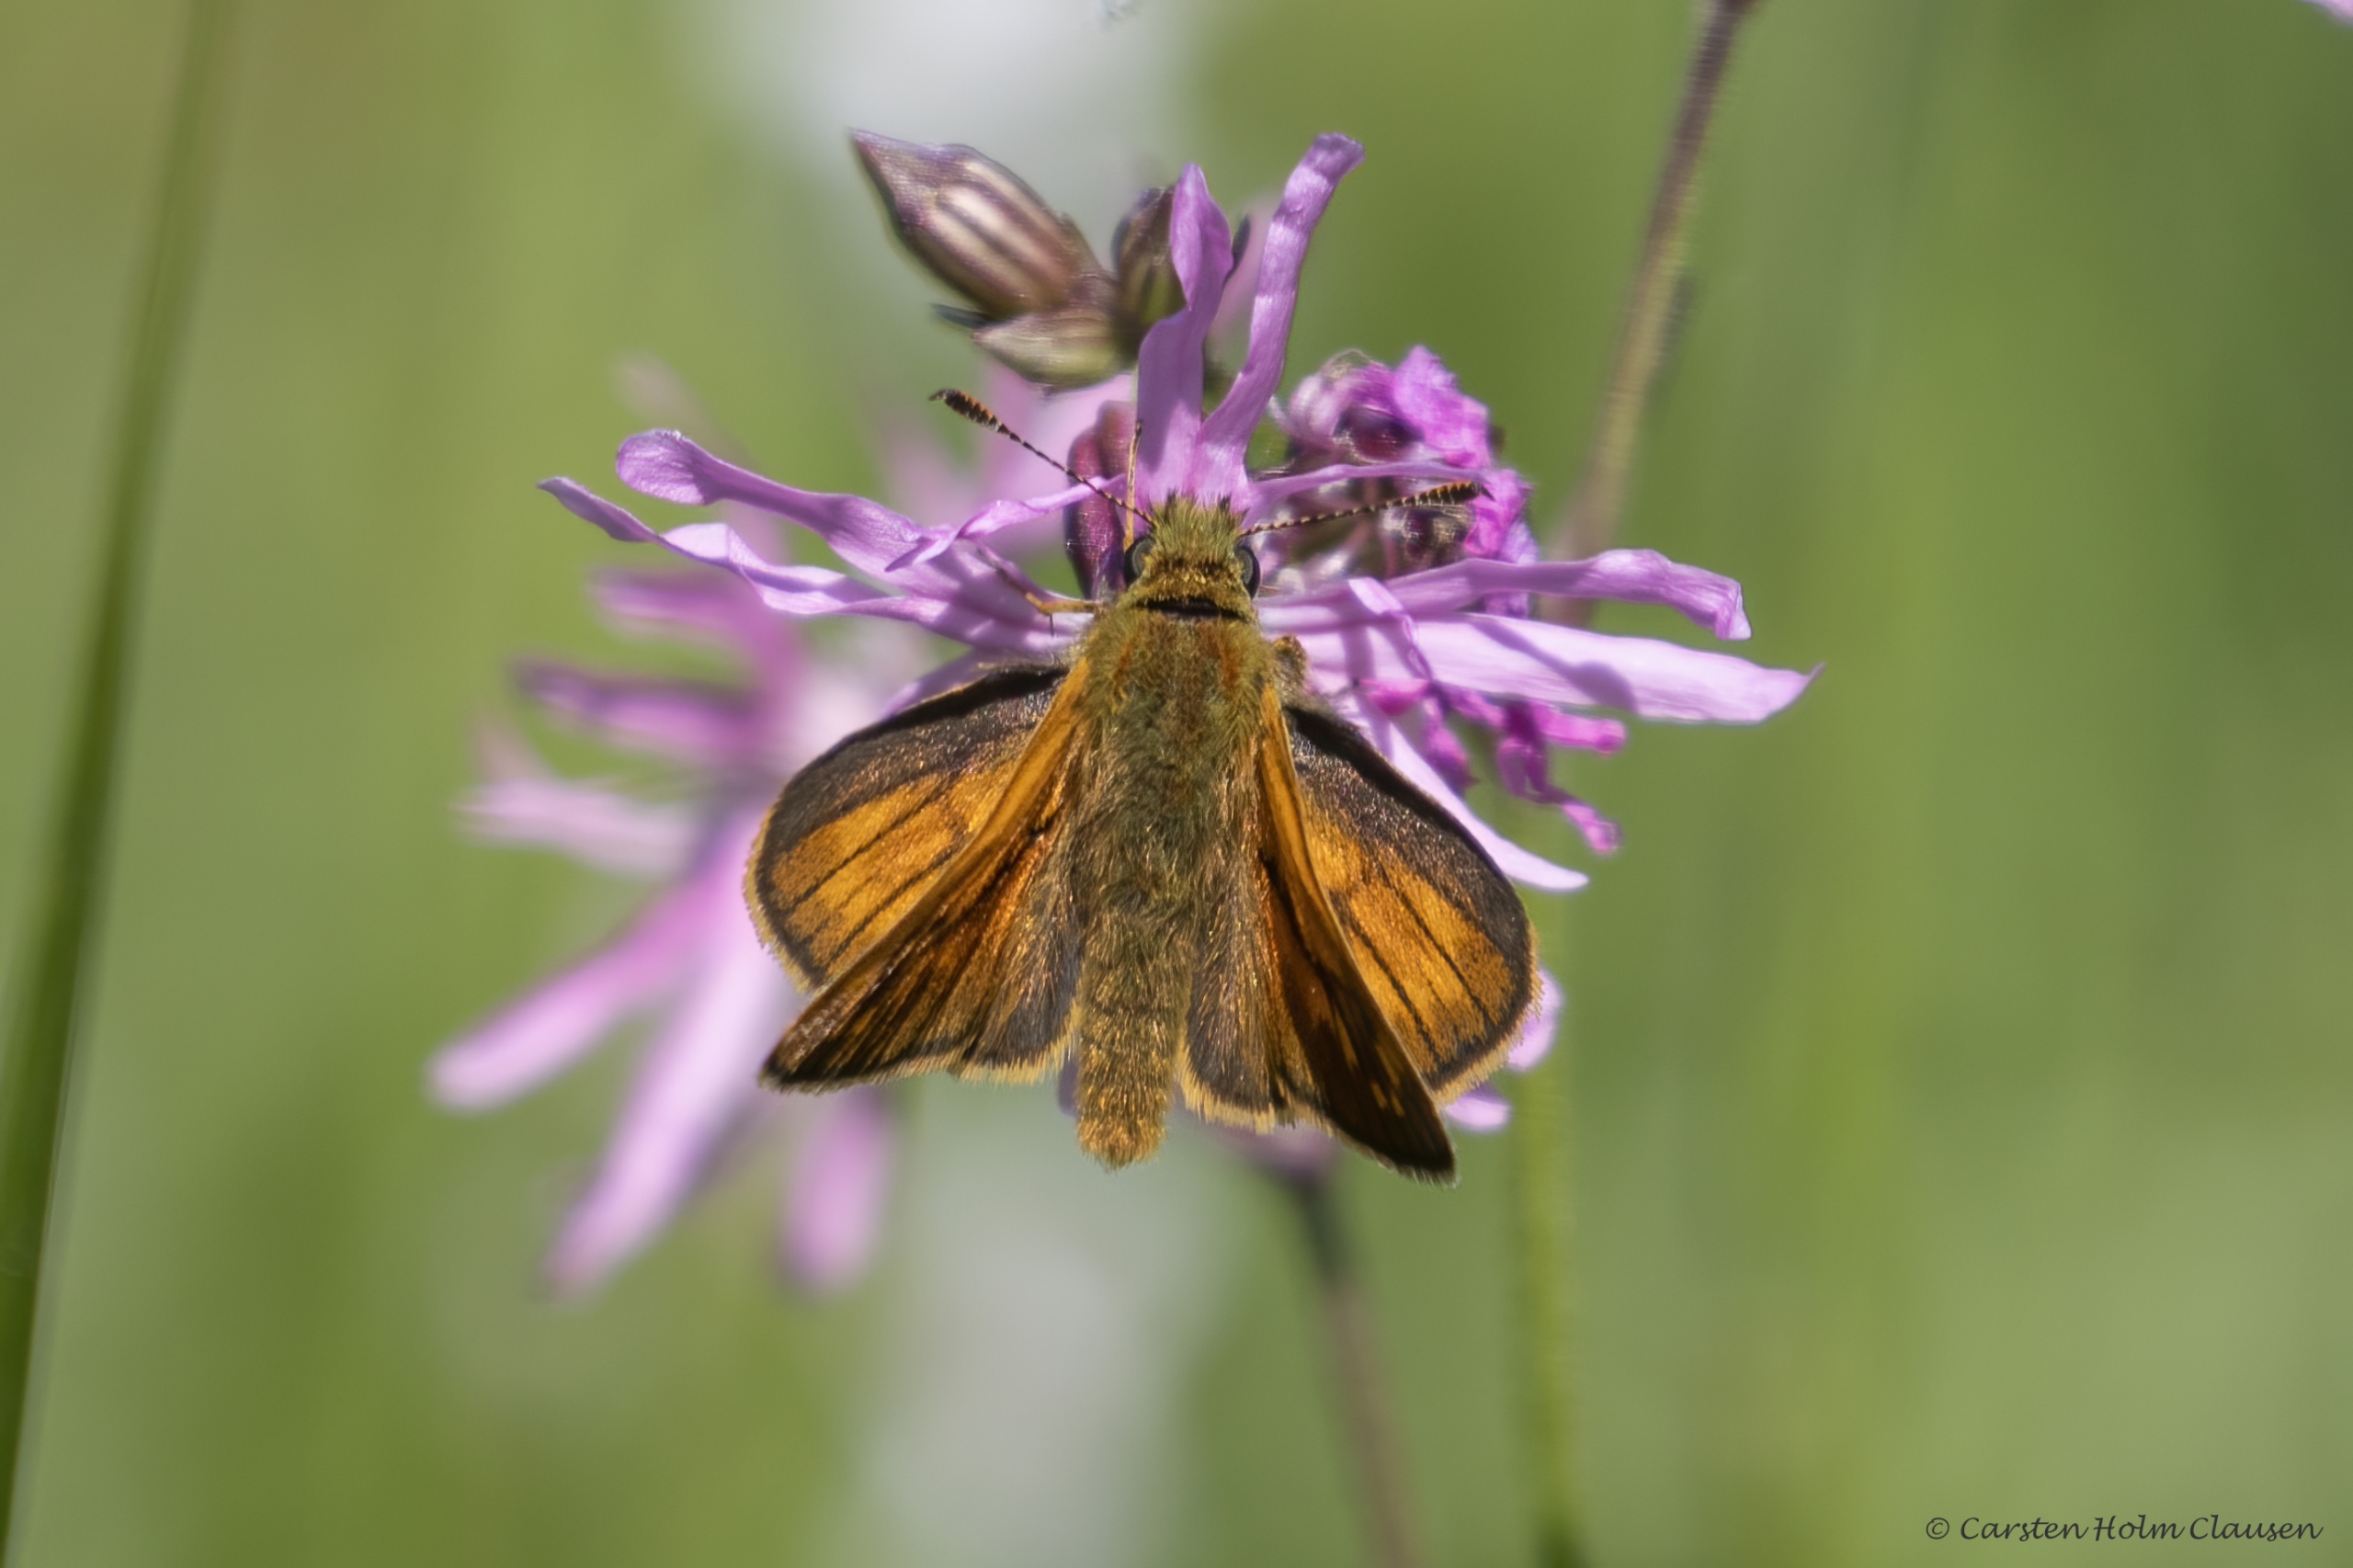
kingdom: Animalia
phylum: Arthropoda
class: Insecta
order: Lepidoptera
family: Hesperiidae
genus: Ochlodes
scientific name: Ochlodes venata
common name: Stor bredpande
